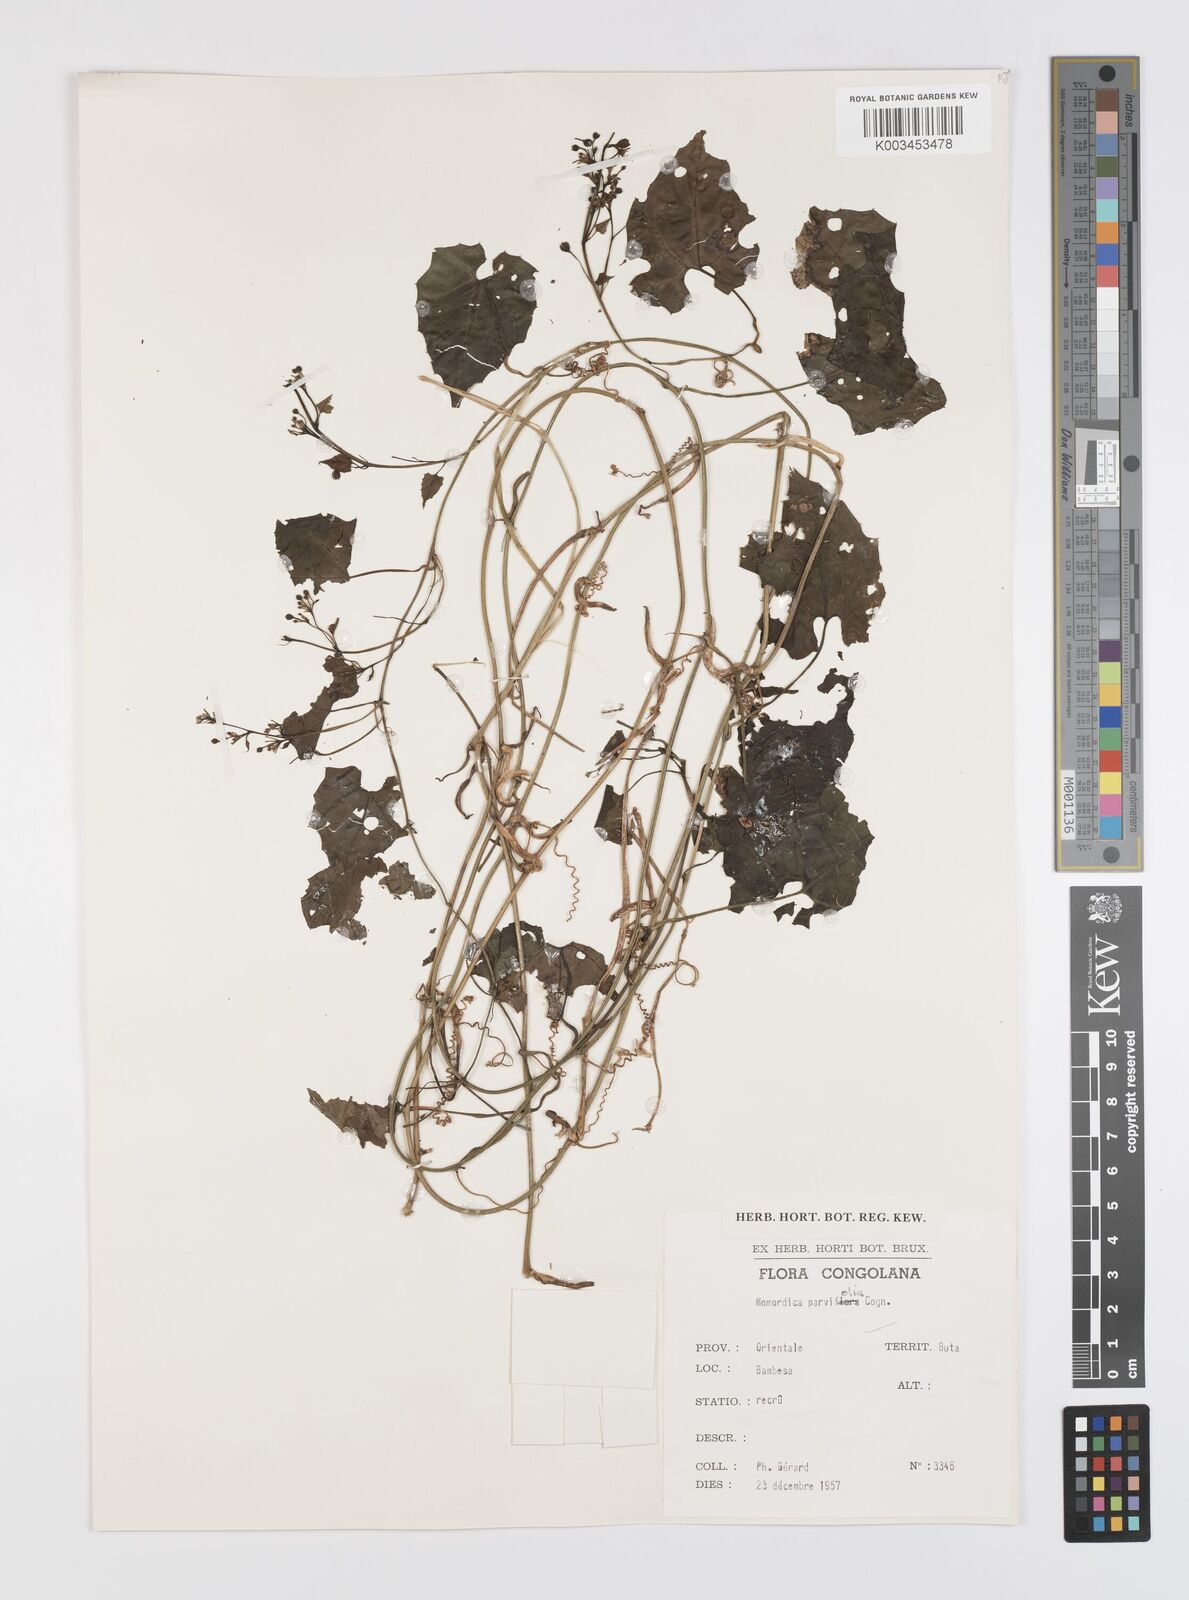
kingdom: Plantae
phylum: Tracheophyta
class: Magnoliopsida
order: Cucurbitales
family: Cucurbitaceae
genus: Momordica
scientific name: Momordica parvifolia
